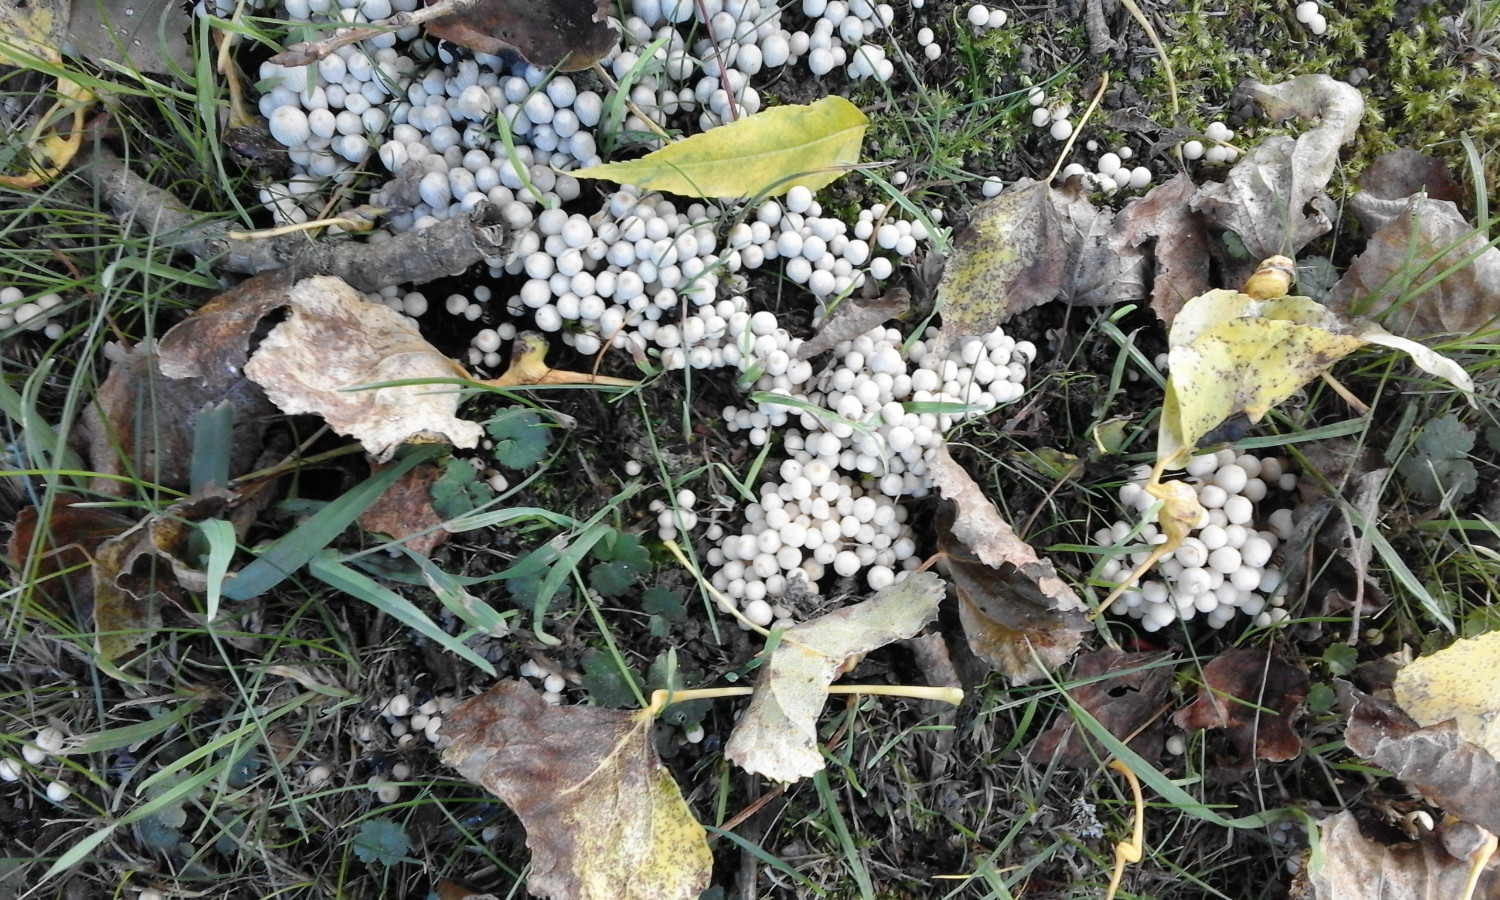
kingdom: Fungi
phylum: Basidiomycota
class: Agaricomycetes
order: Agaricales
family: Psathyrellaceae
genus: Coprinellus
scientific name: Coprinellus disseminatus
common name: bredsået blækhat
